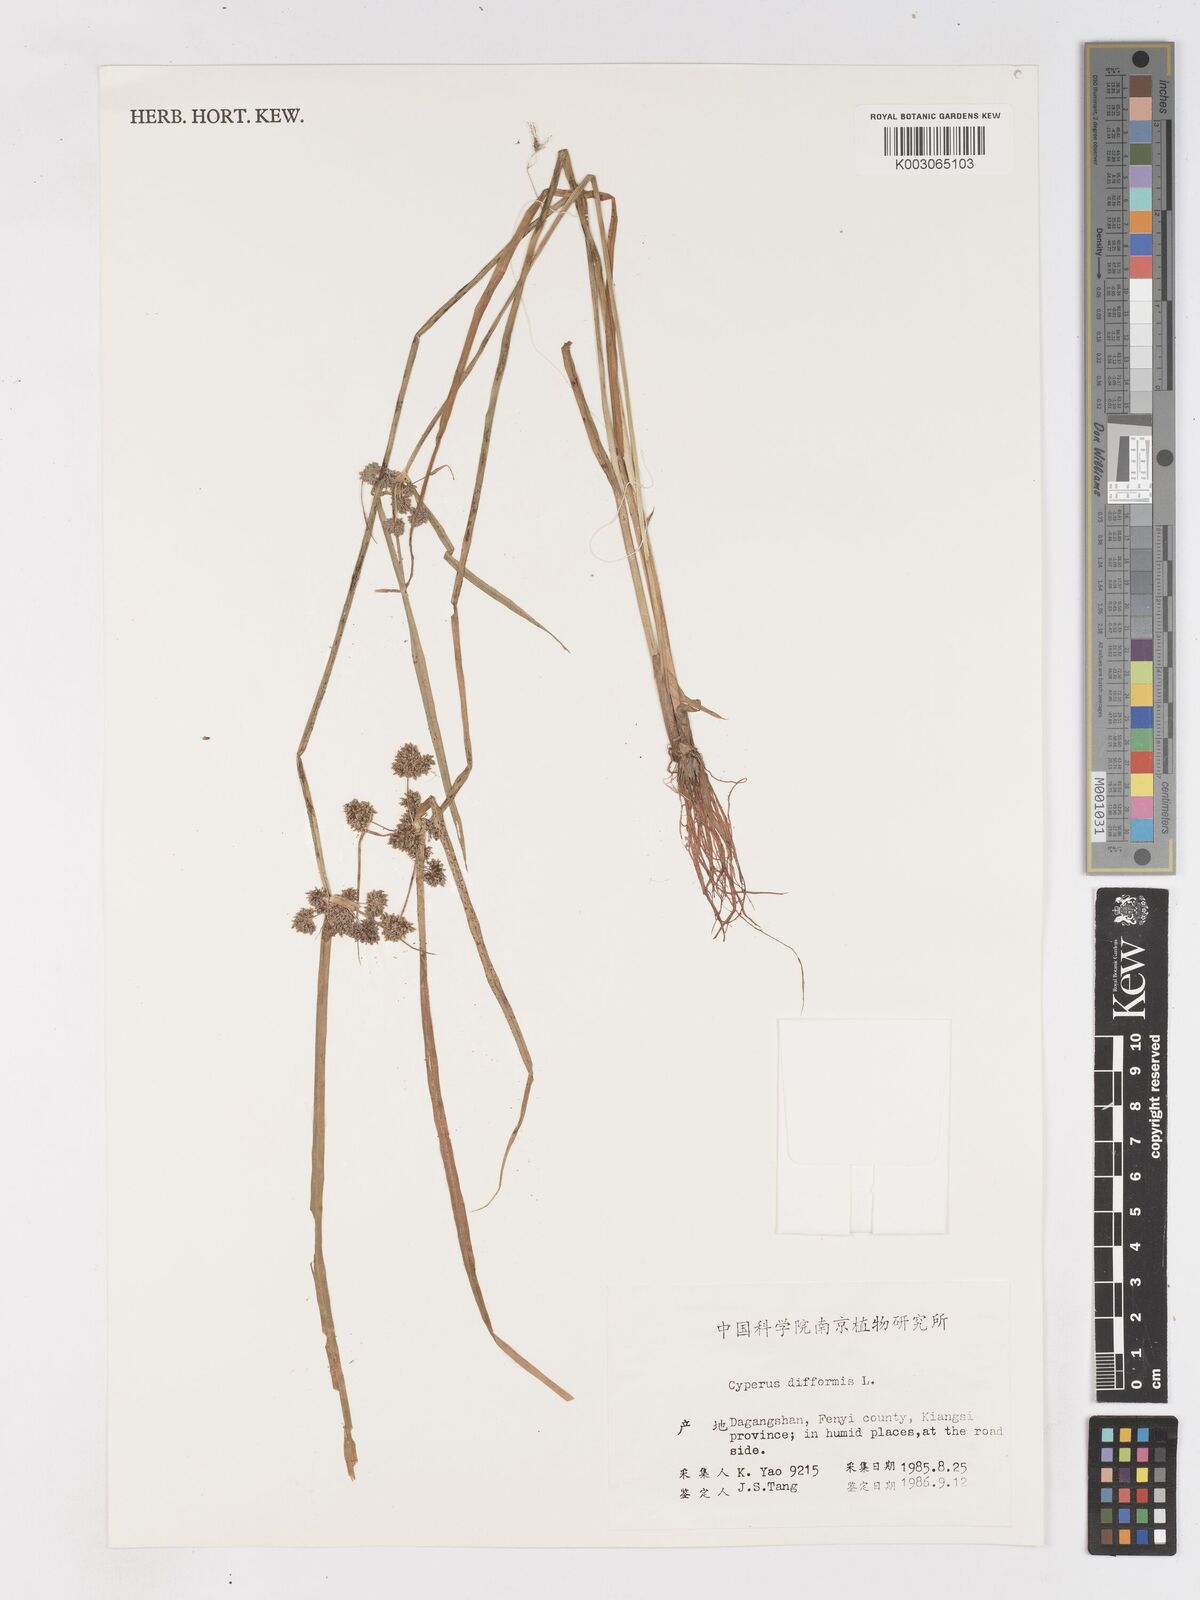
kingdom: Plantae
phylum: Tracheophyta
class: Liliopsida
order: Poales
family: Cyperaceae
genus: Cyperus
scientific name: Cyperus difformis
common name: Variable flatsedge
